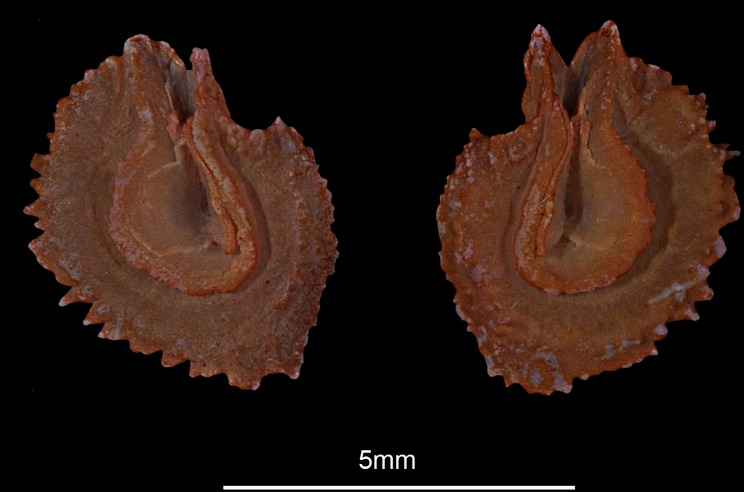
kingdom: Animalia
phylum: Chordata
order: Cypriniformes
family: Cyprinidae
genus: Chondrostoma
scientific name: Chondrostoma nasus
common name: Nase
